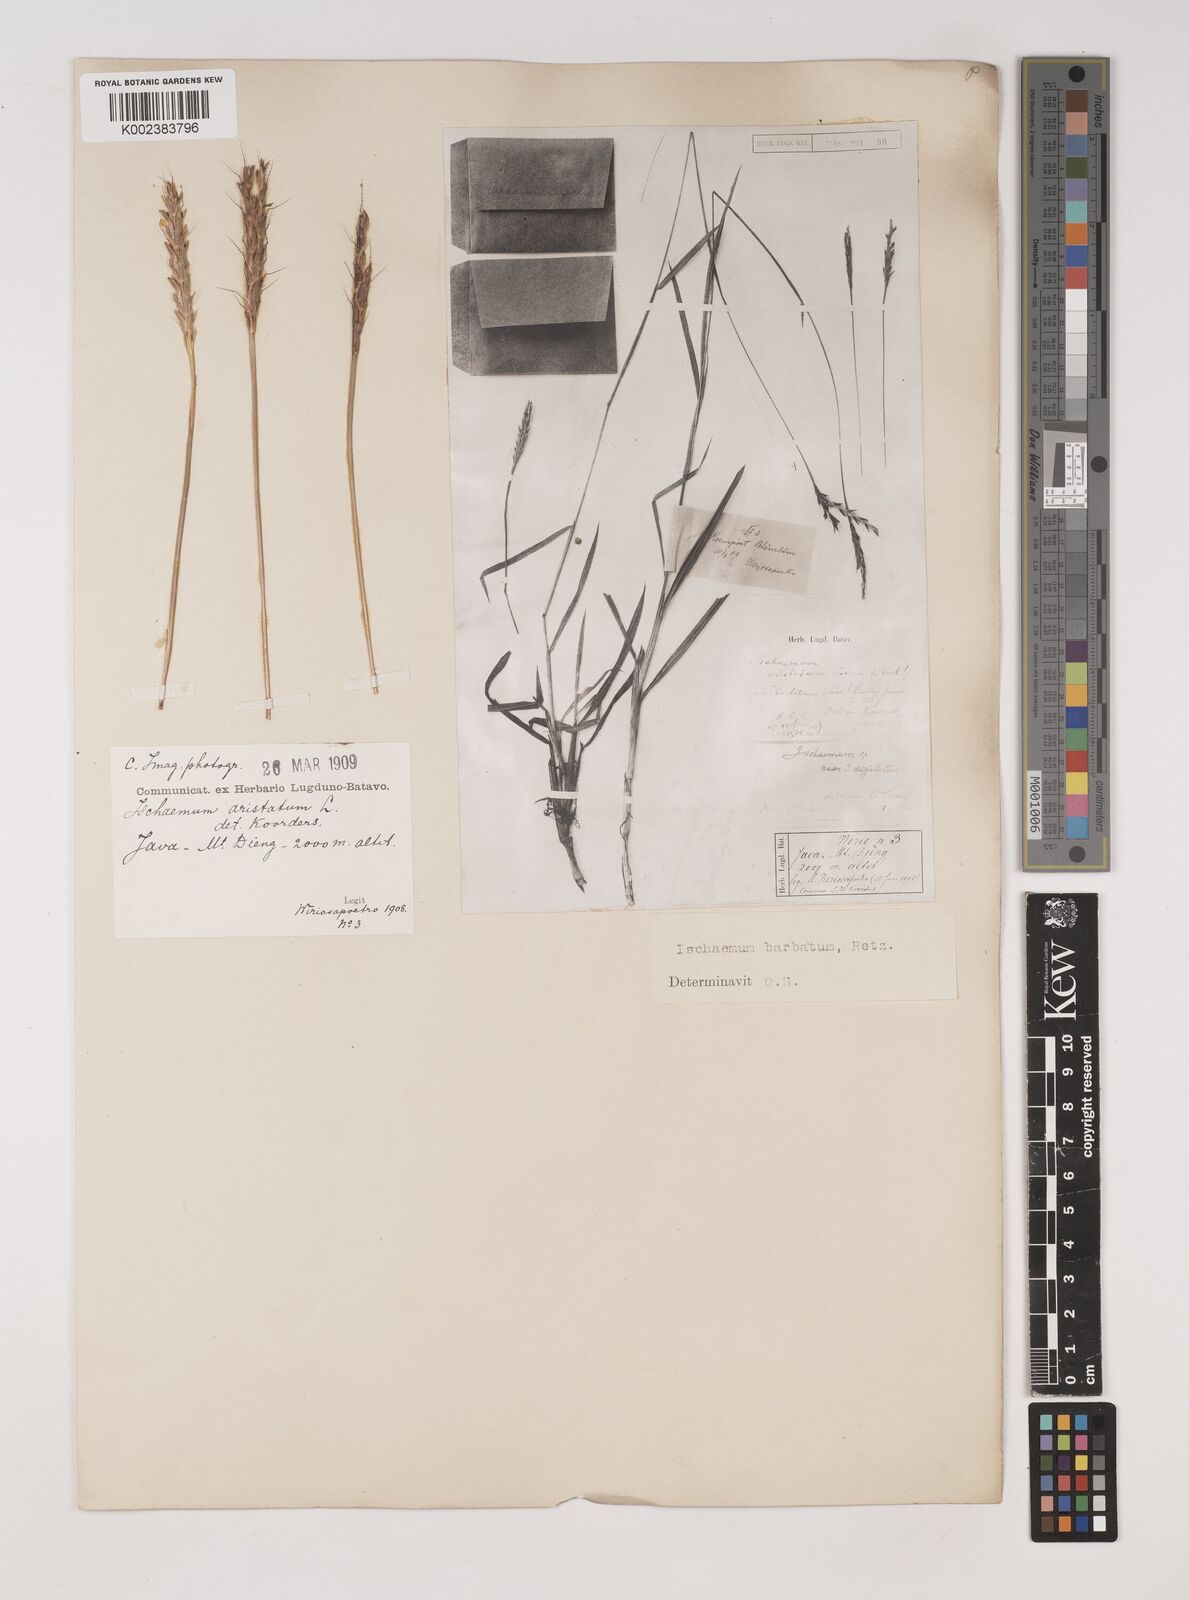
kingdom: Plantae
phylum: Tracheophyta
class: Liliopsida
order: Poales
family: Poaceae
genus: Ischaemum
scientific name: Ischaemum barbatum
